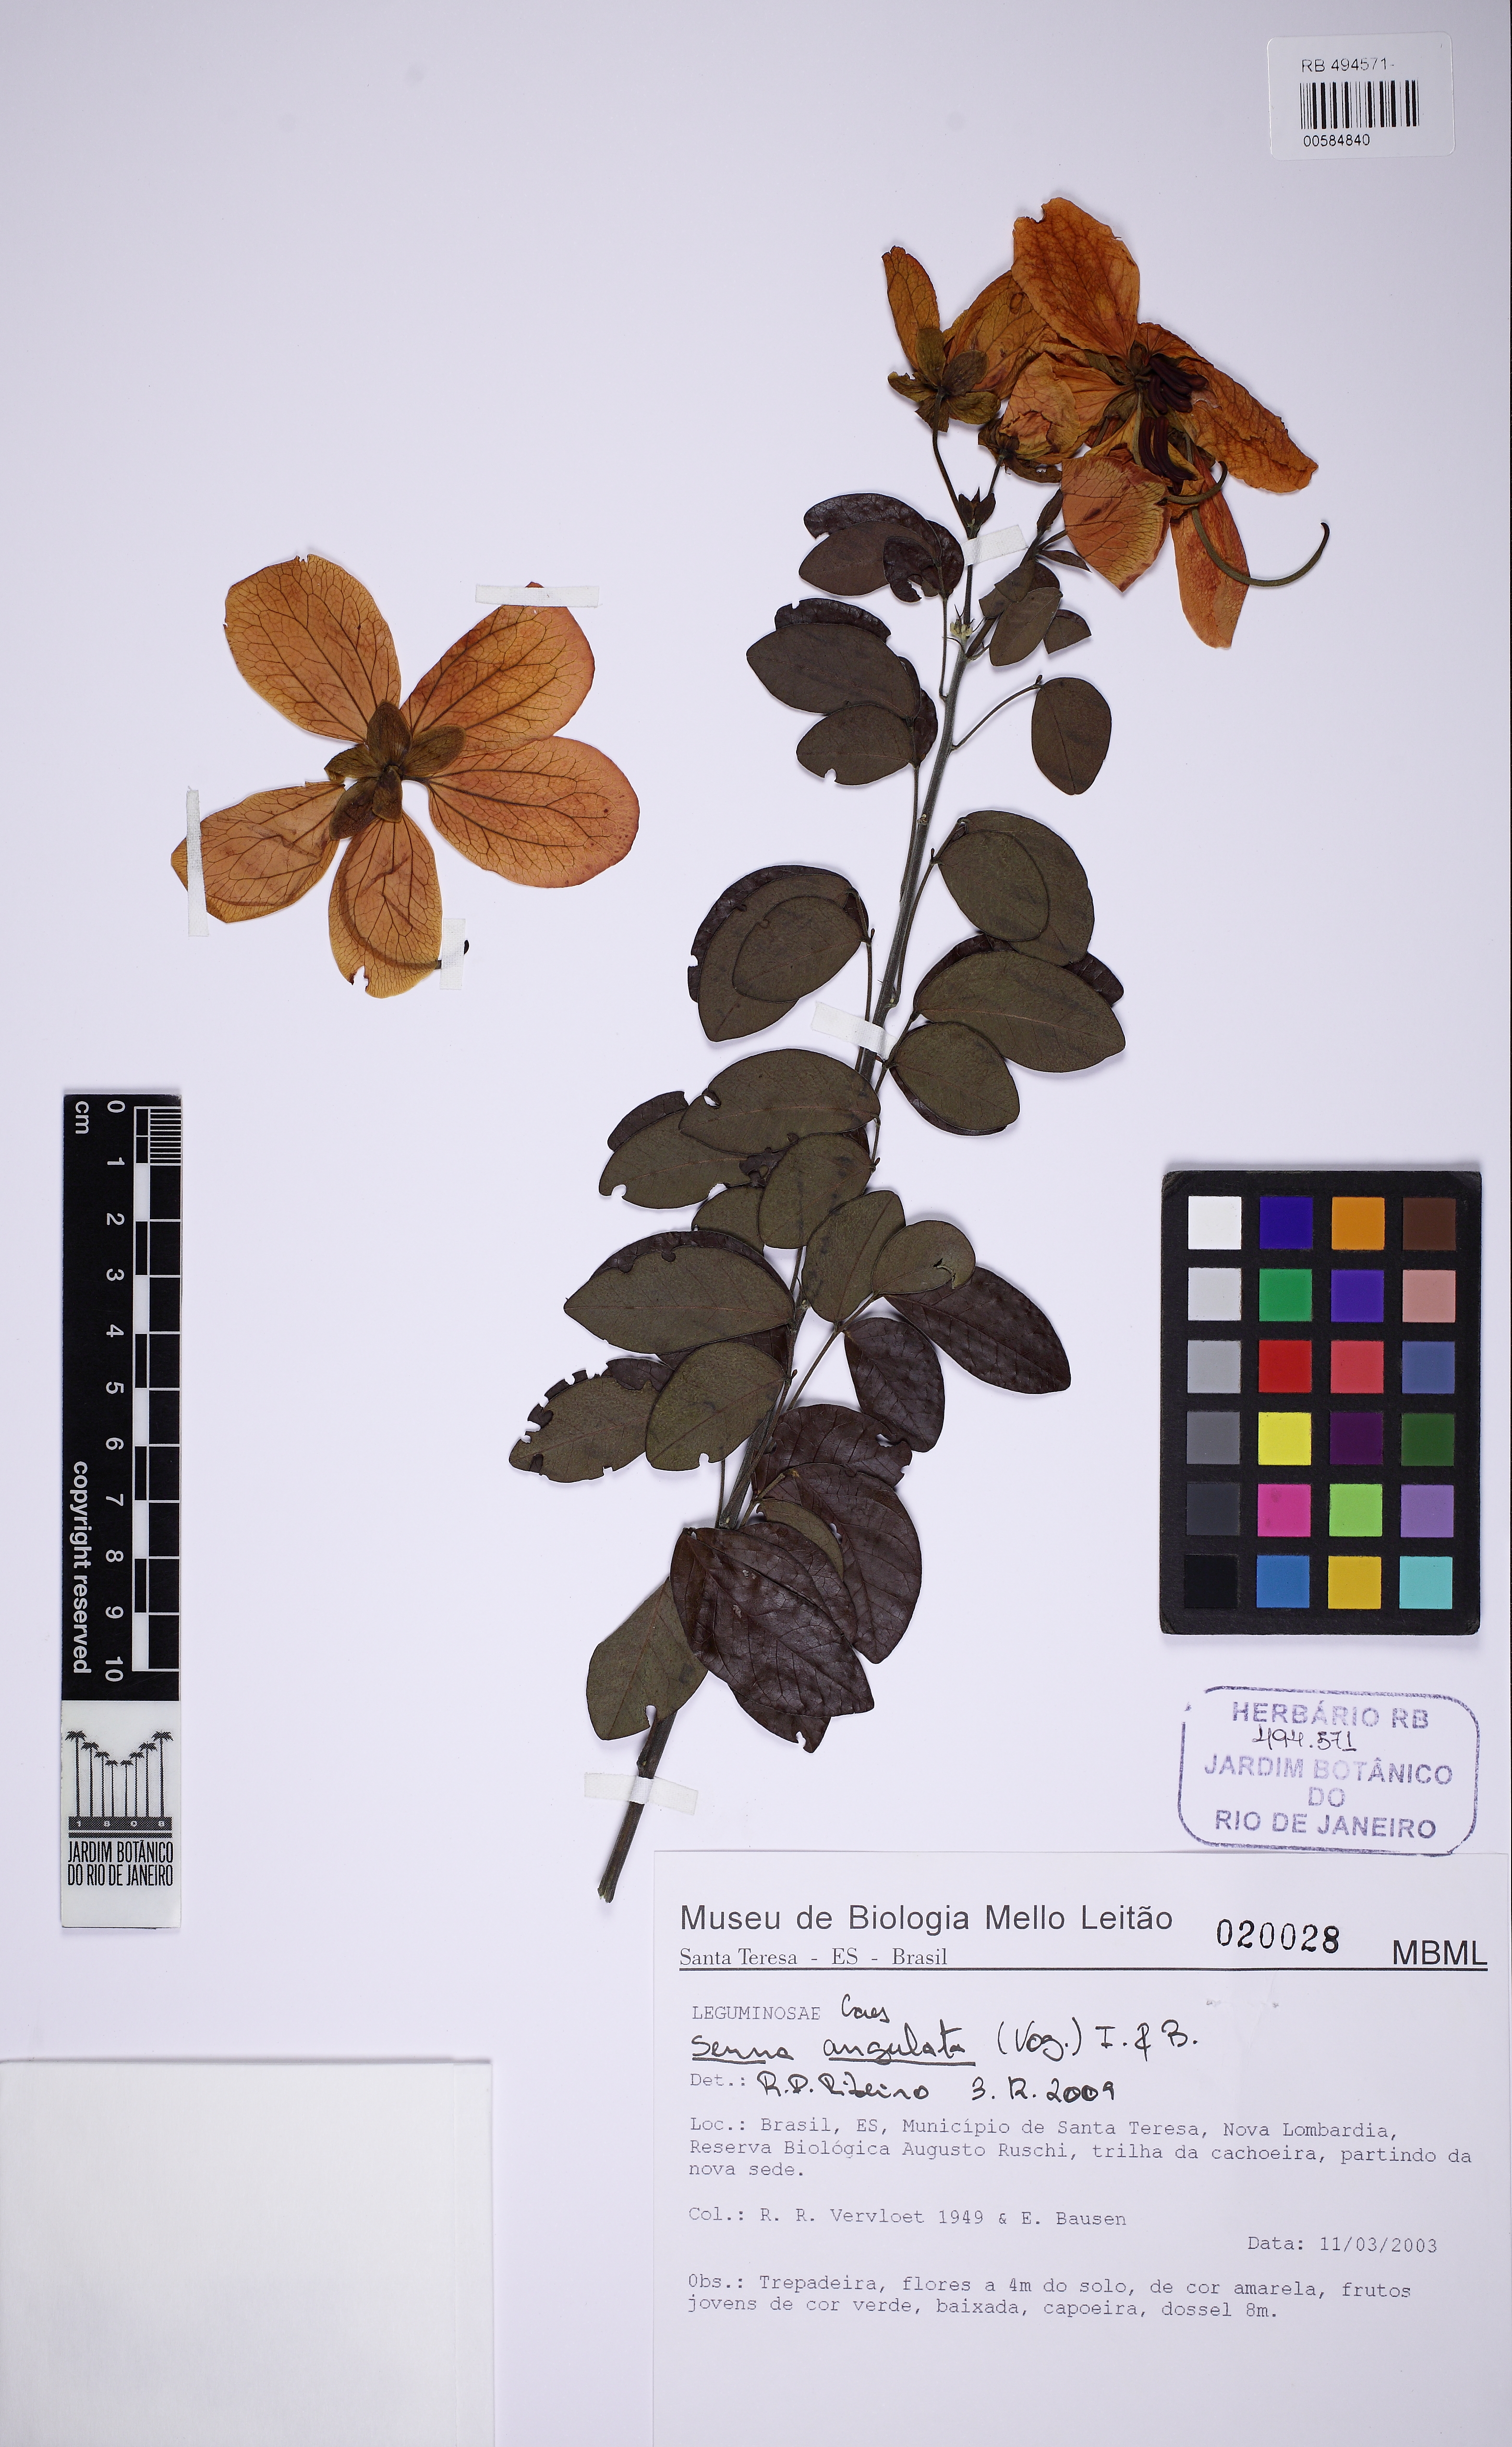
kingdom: Plantae
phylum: Tracheophyta
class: Magnoliopsida
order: Fabales
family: Fabaceae
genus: Senna
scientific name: Senna angulata
